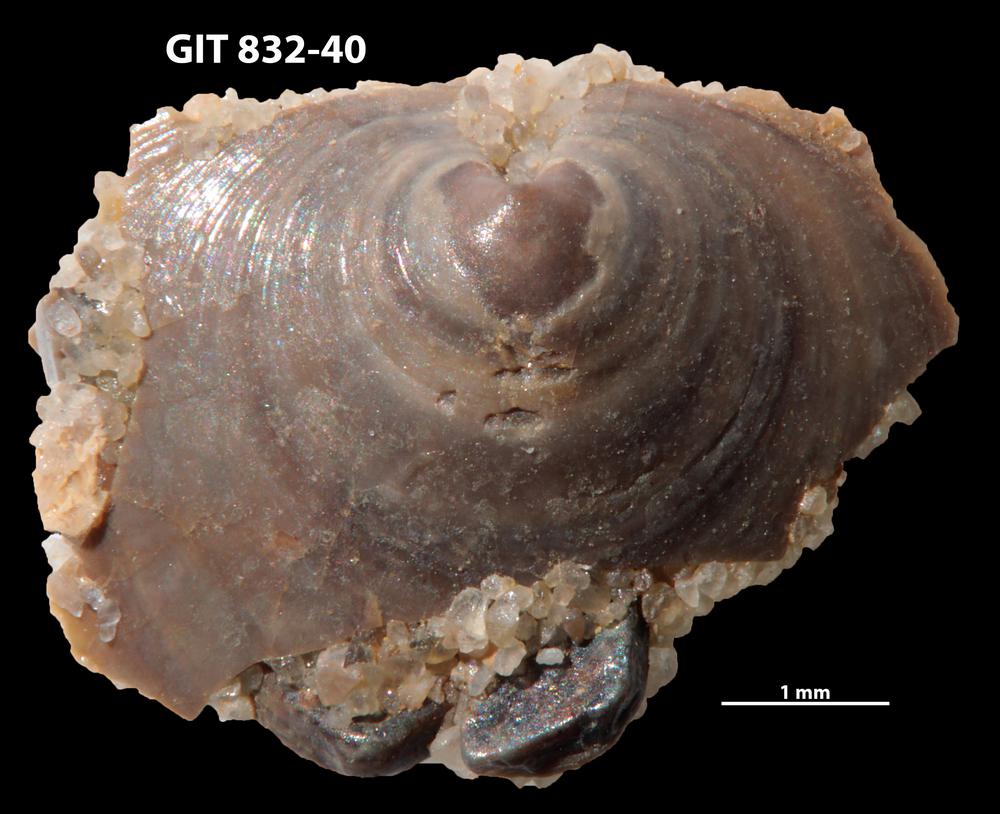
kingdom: Animalia
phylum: Brachiopoda
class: Lingulata
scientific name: Lingulata
